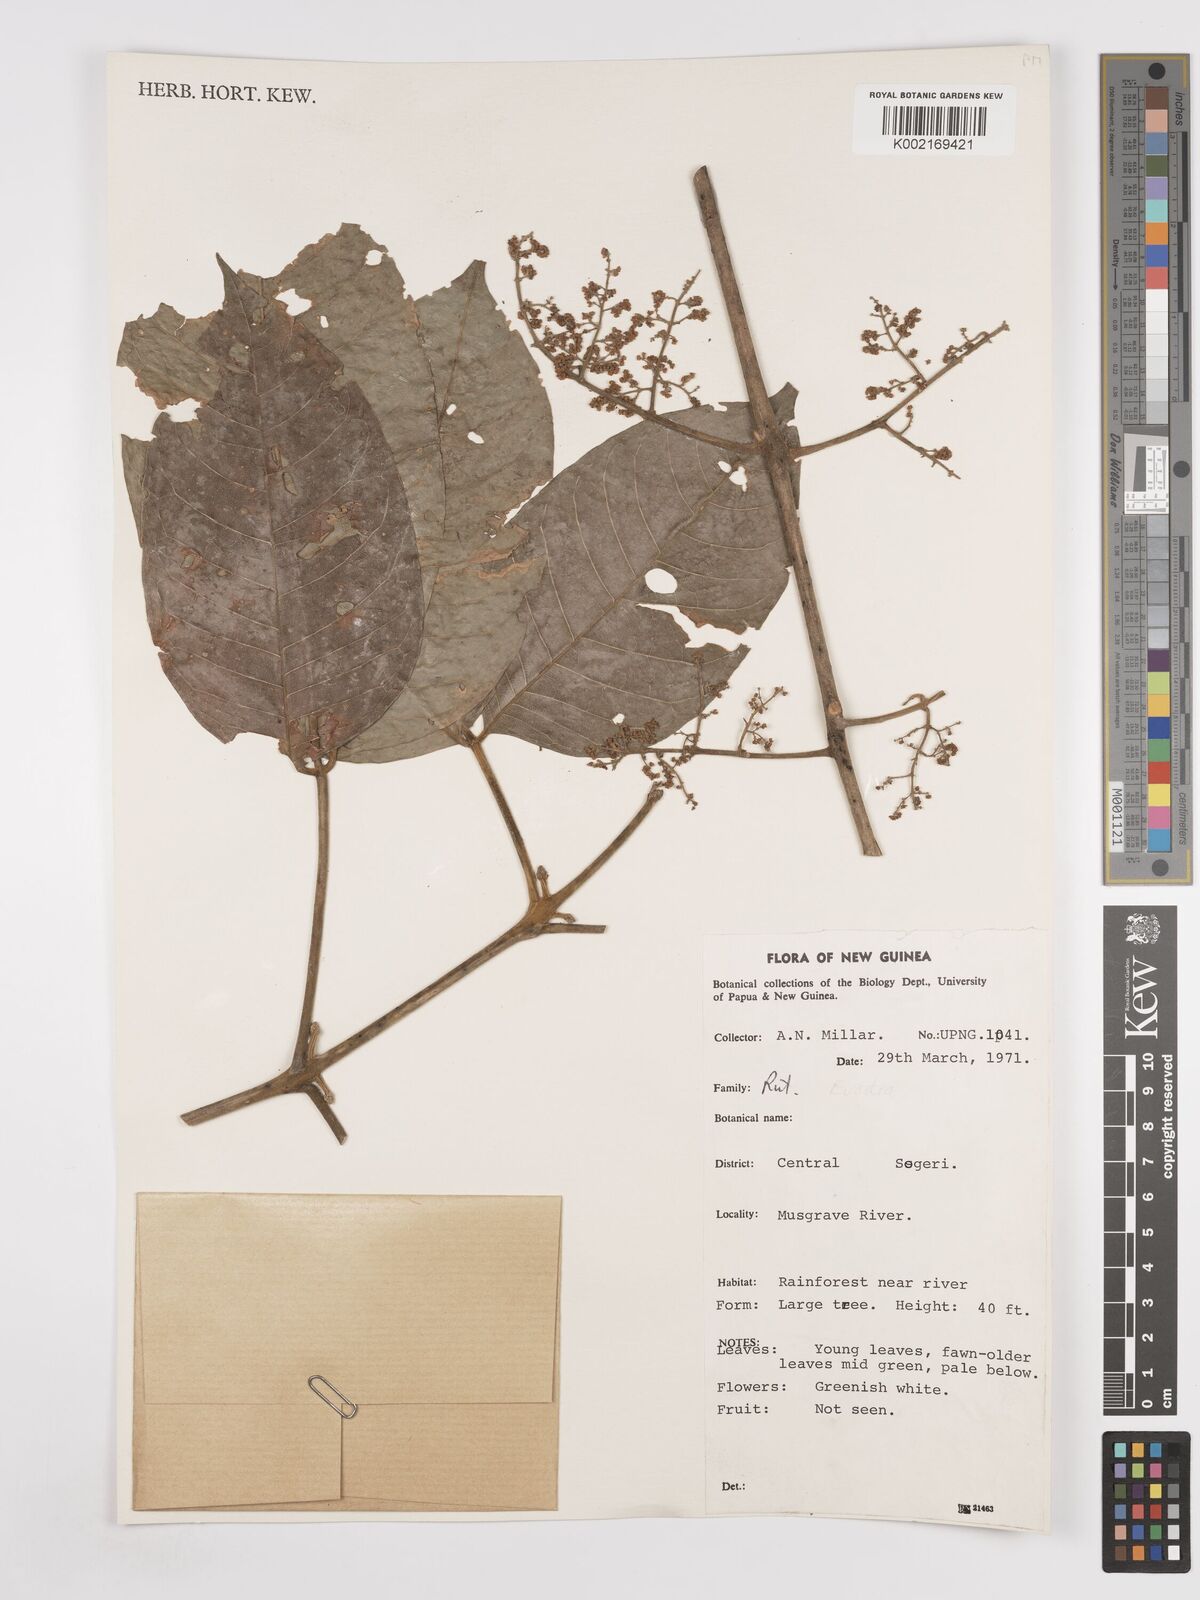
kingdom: Plantae
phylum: Tracheophyta
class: Magnoliopsida
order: Sapindales
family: Rutaceae
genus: Euodia
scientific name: Euodia
